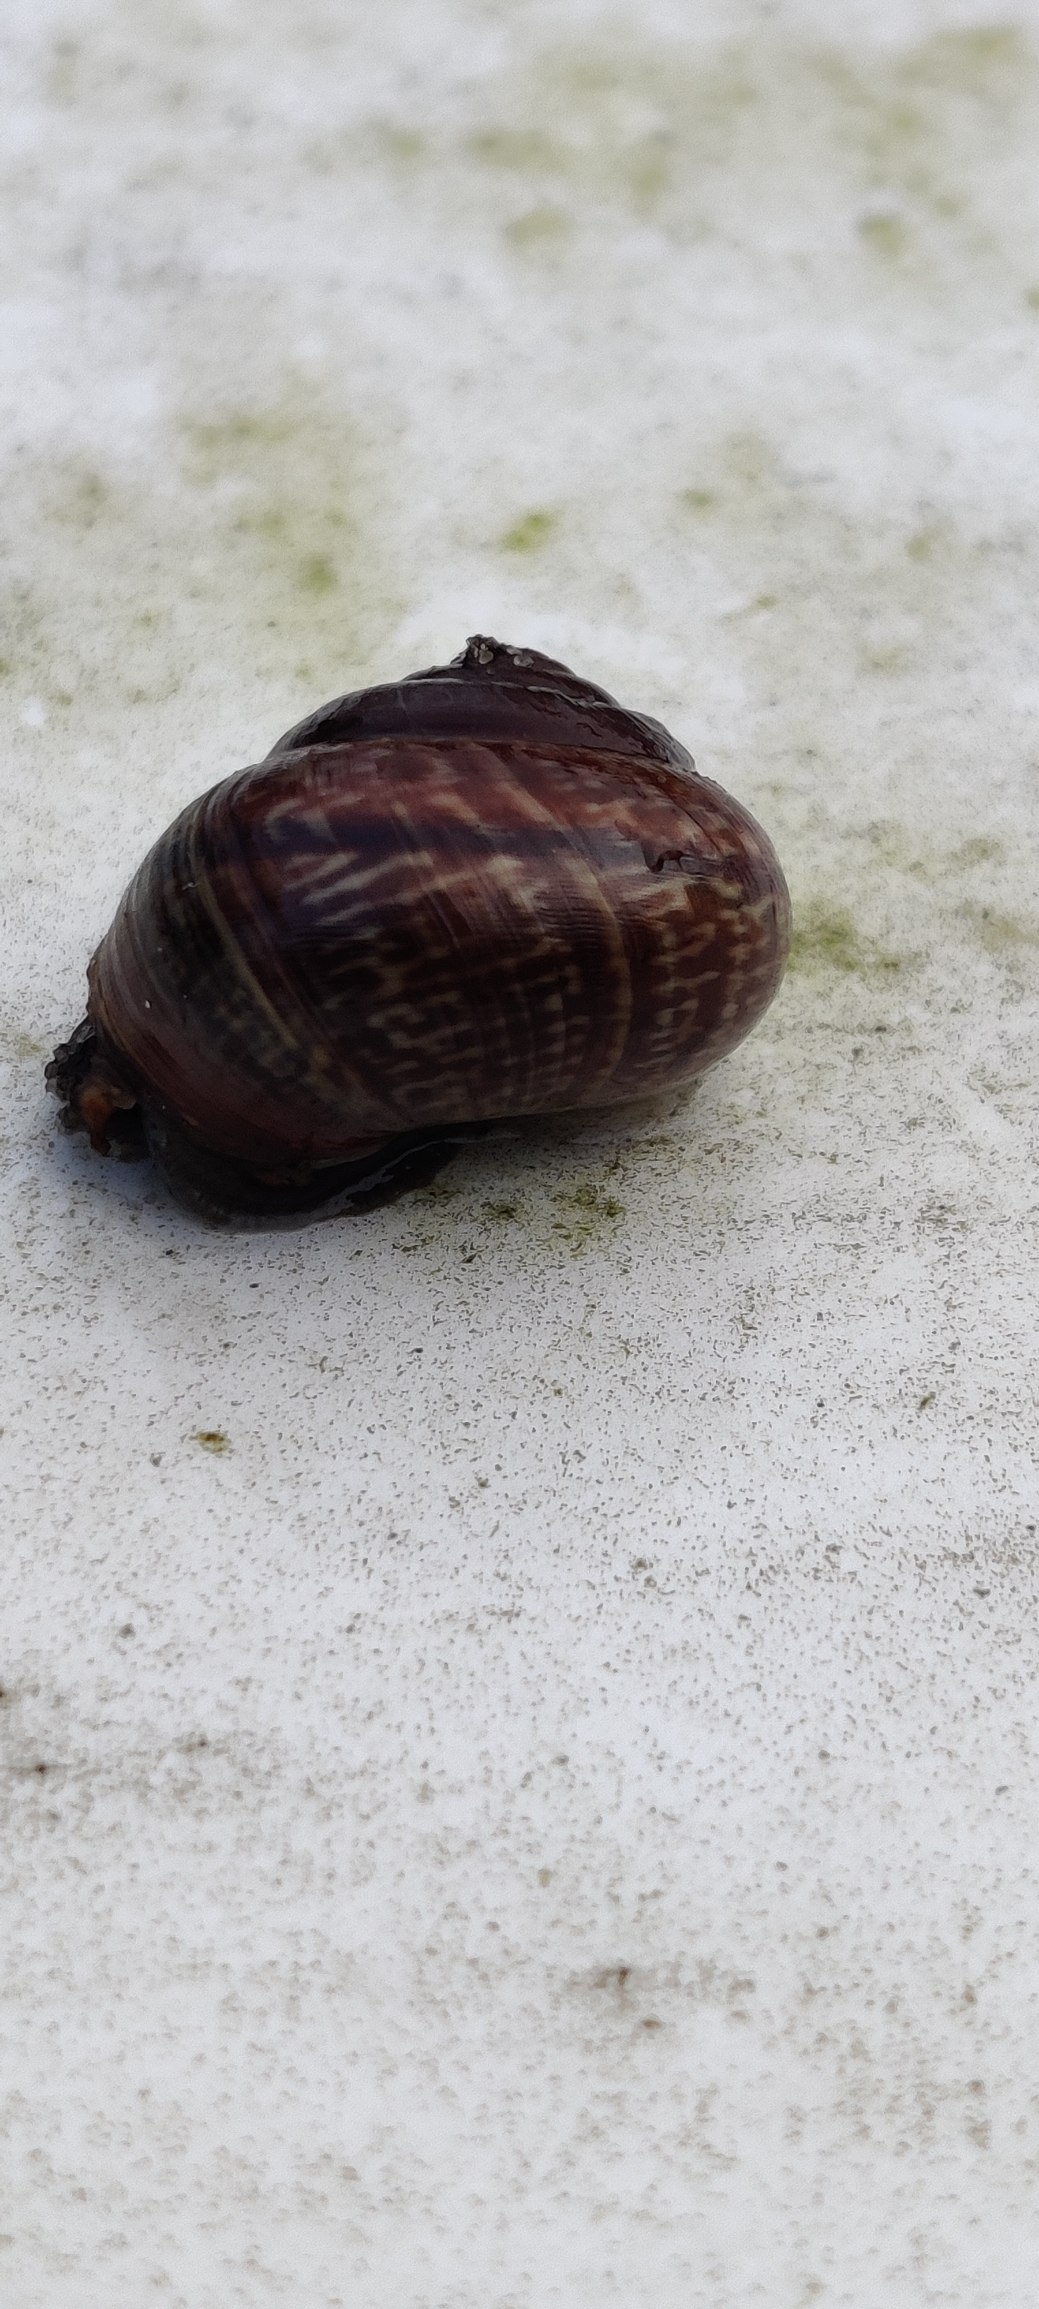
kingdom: Animalia
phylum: Mollusca
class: Gastropoda
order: Stylommatophora
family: Helicidae
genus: Arianta
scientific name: Arianta arbustorum
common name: Kratsnegl
